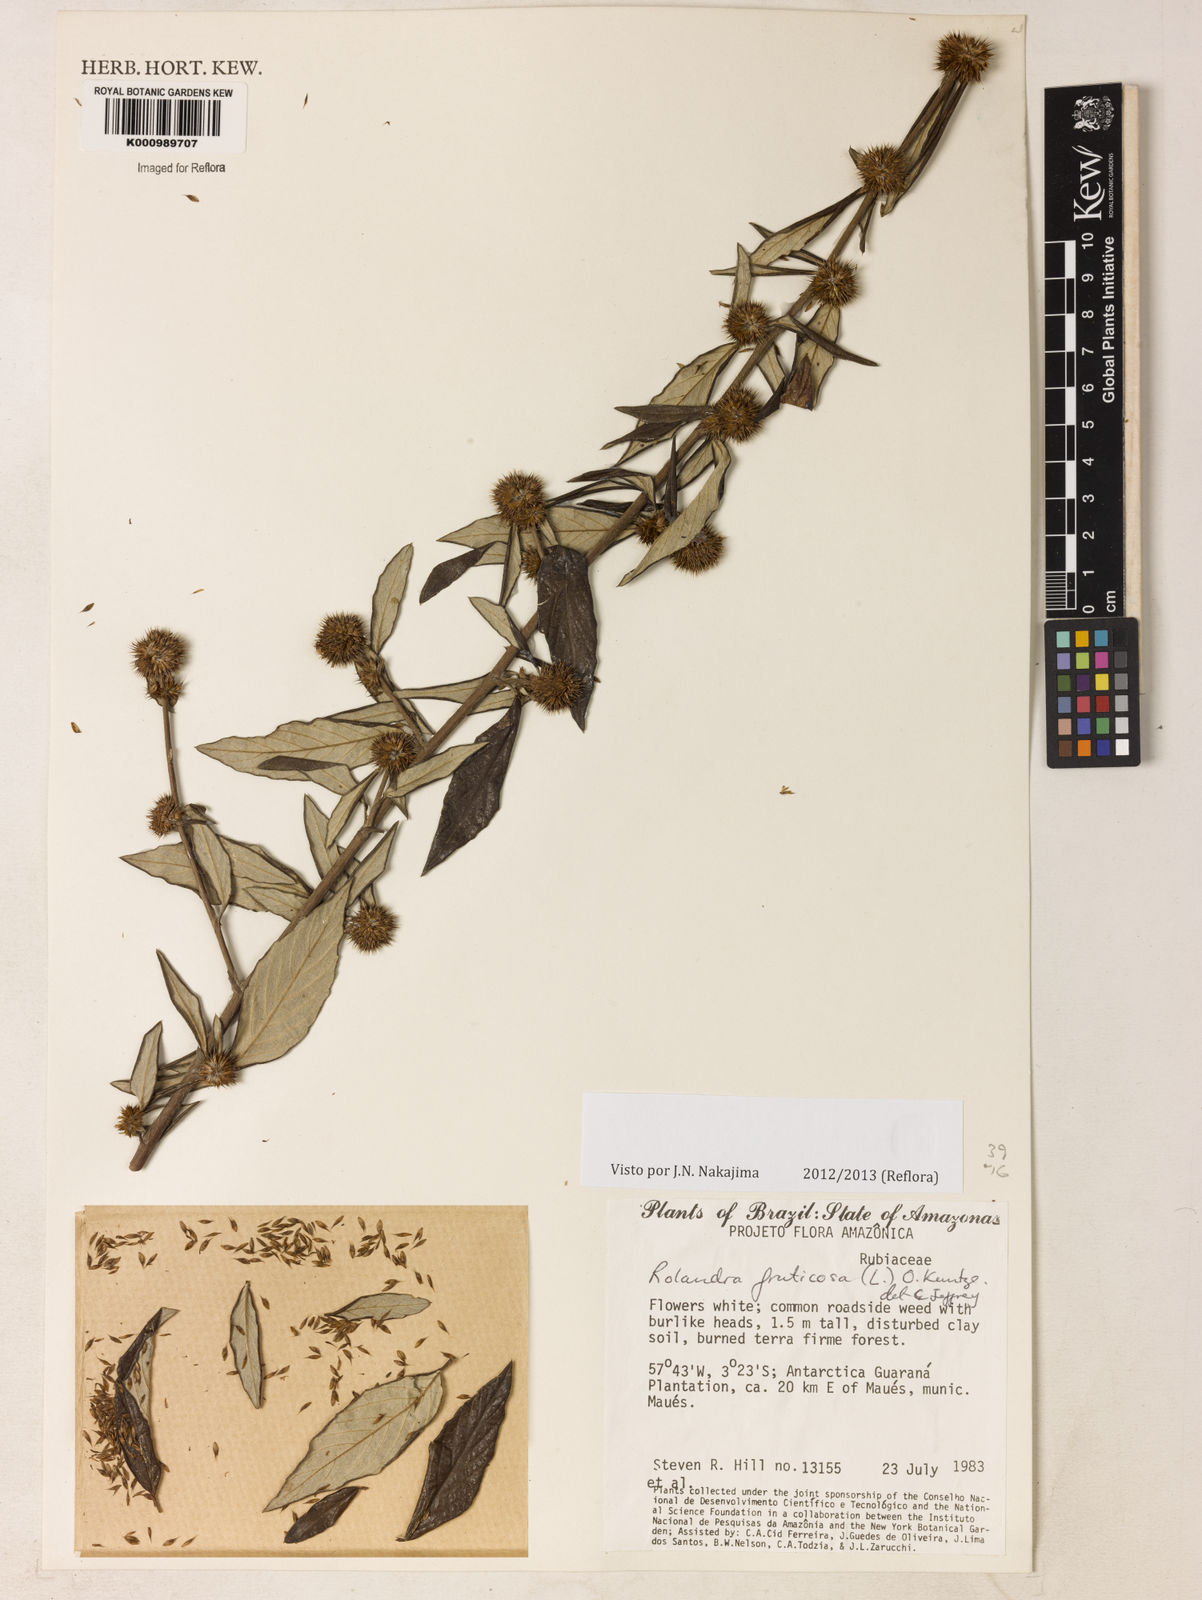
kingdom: Plantae
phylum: Tracheophyta
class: Magnoliopsida
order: Asterales
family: Asteraceae
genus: Rolandra
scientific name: Rolandra fruticosa
